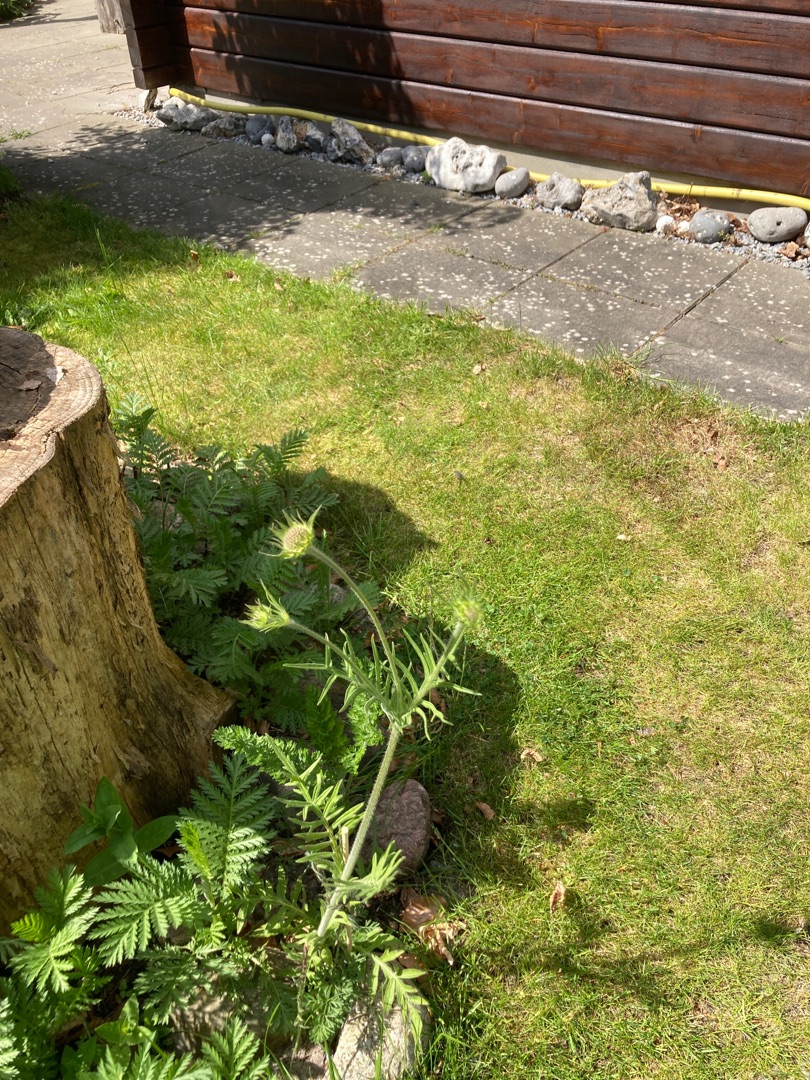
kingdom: Plantae
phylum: Tracheophyta
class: Magnoliopsida
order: Dipsacales
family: Caprifoliaceae
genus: Knautia
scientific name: Knautia arvensis
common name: Blåhat
